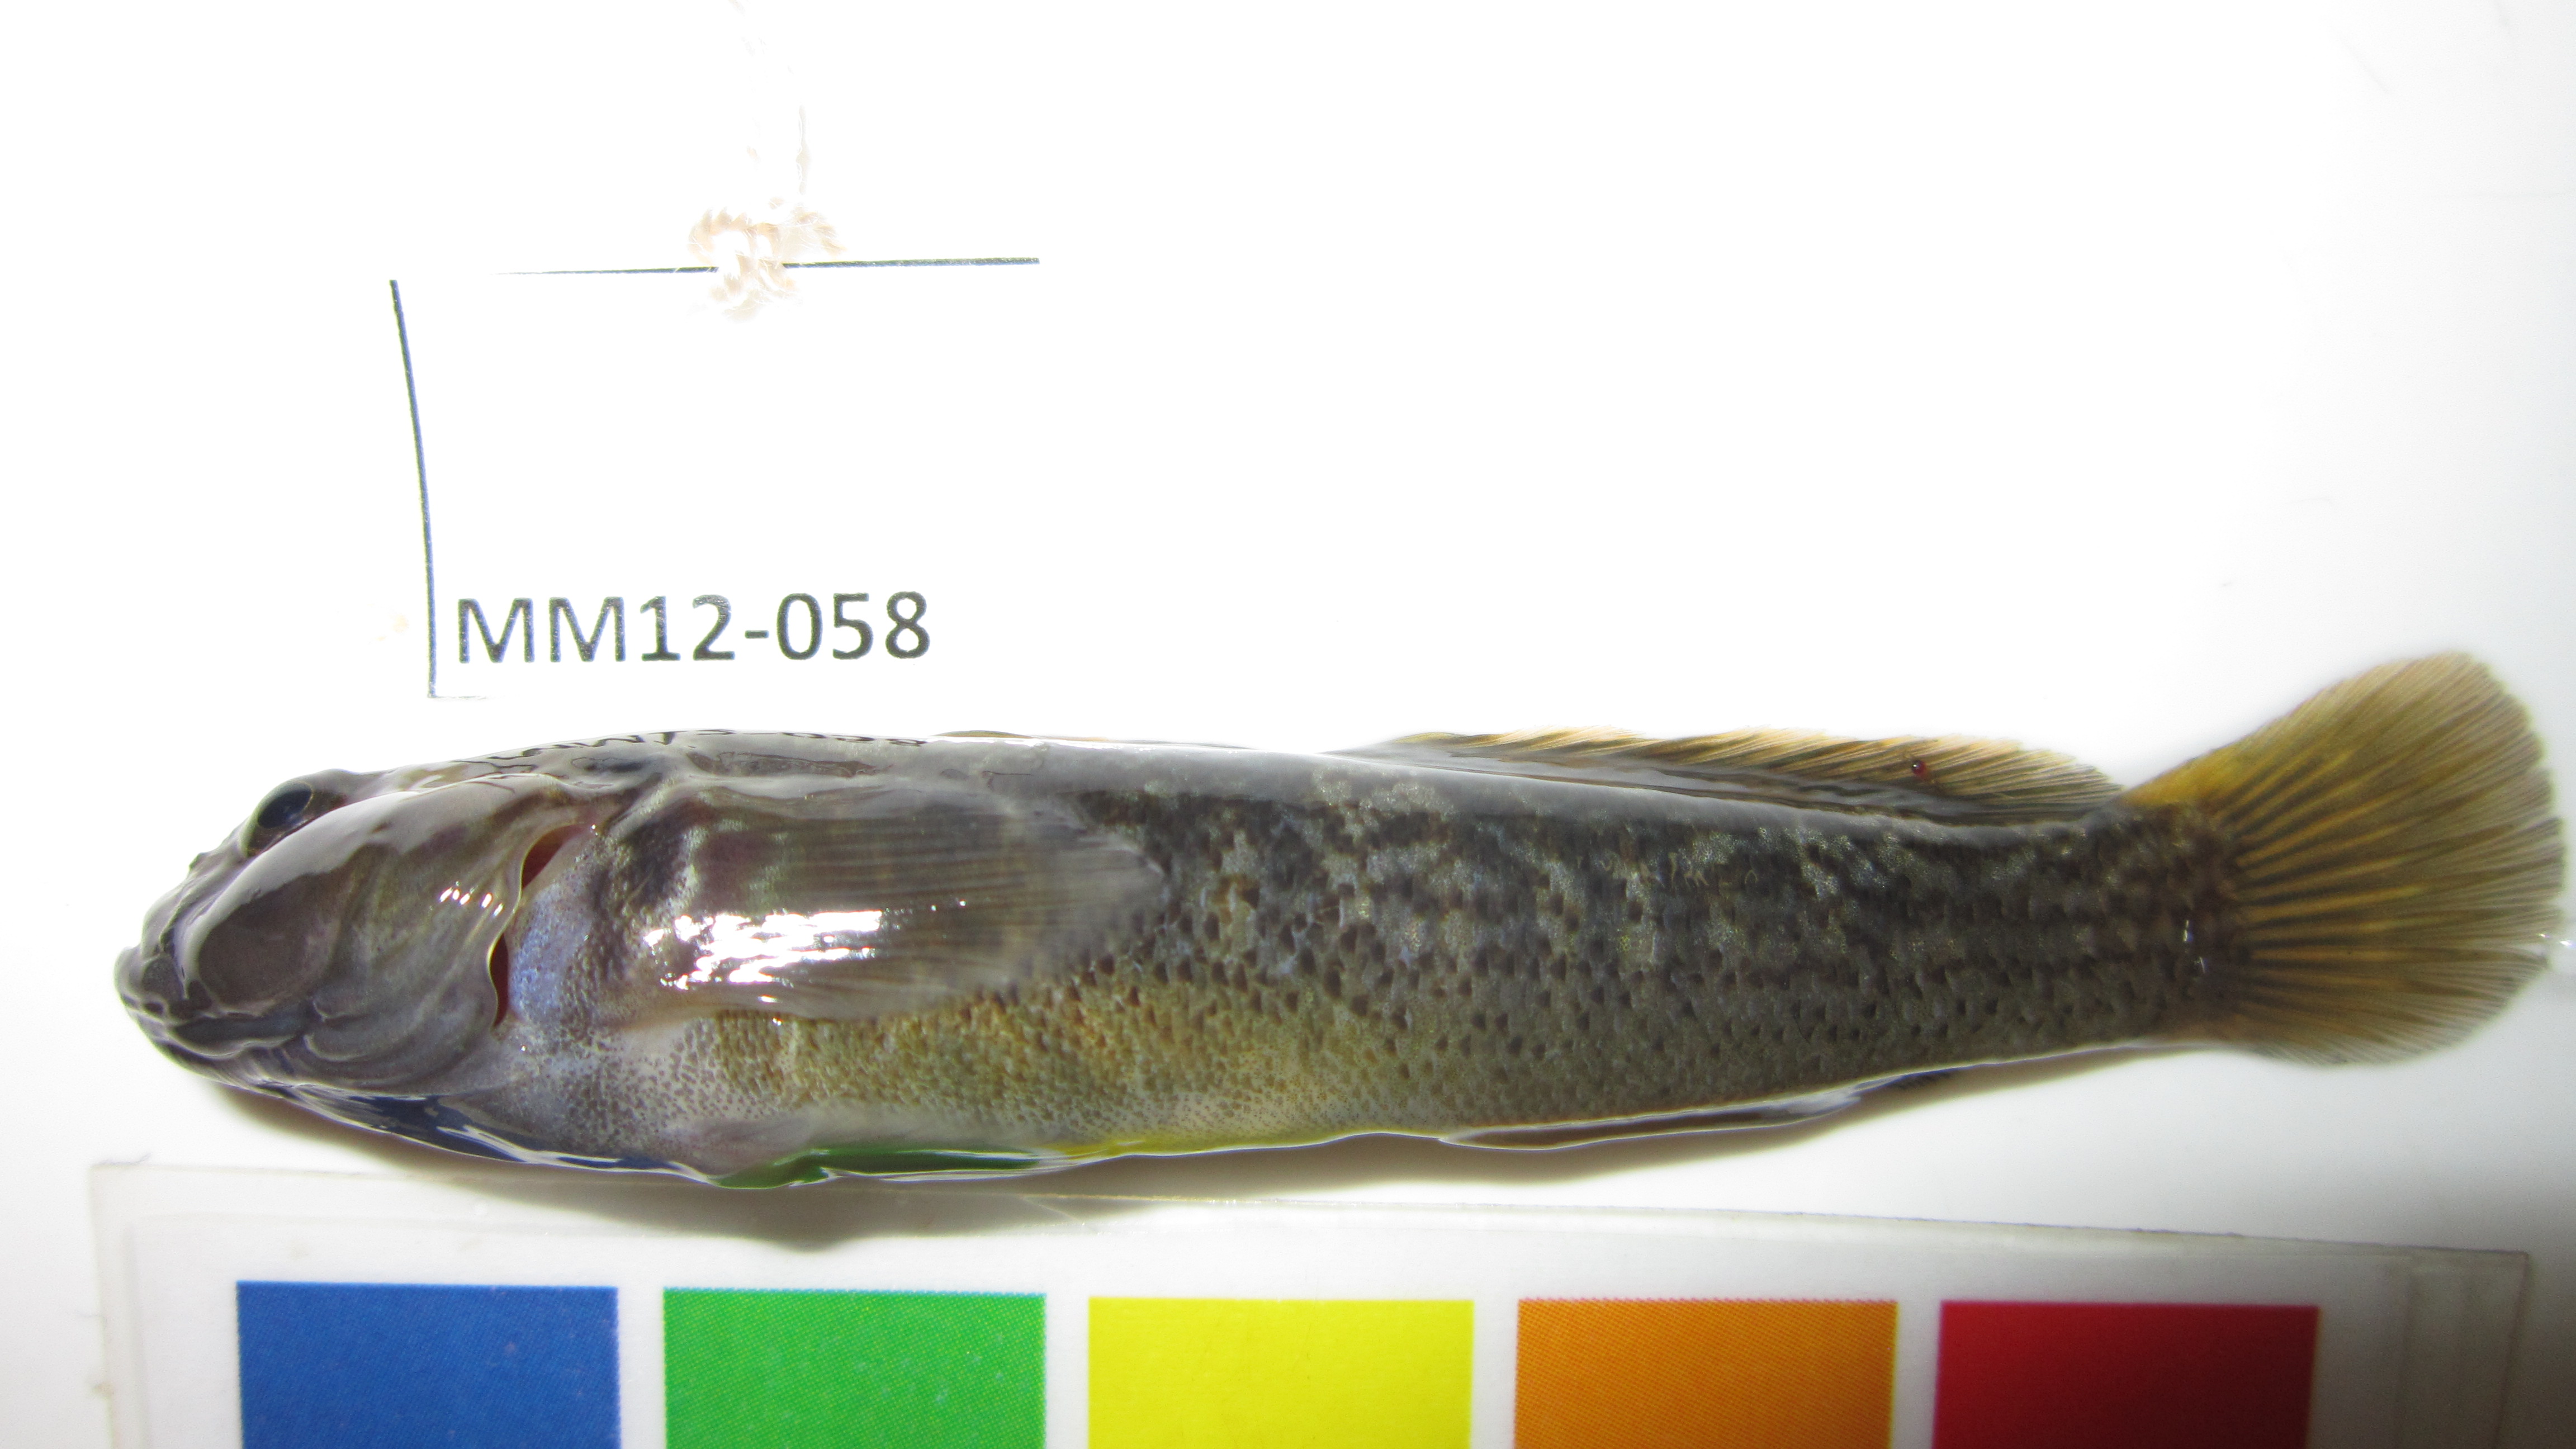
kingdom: Animalia
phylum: Chordata
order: Perciformes
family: Gobiidae
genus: Caffrogobius
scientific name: Caffrogobius caffer
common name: Banded goby
